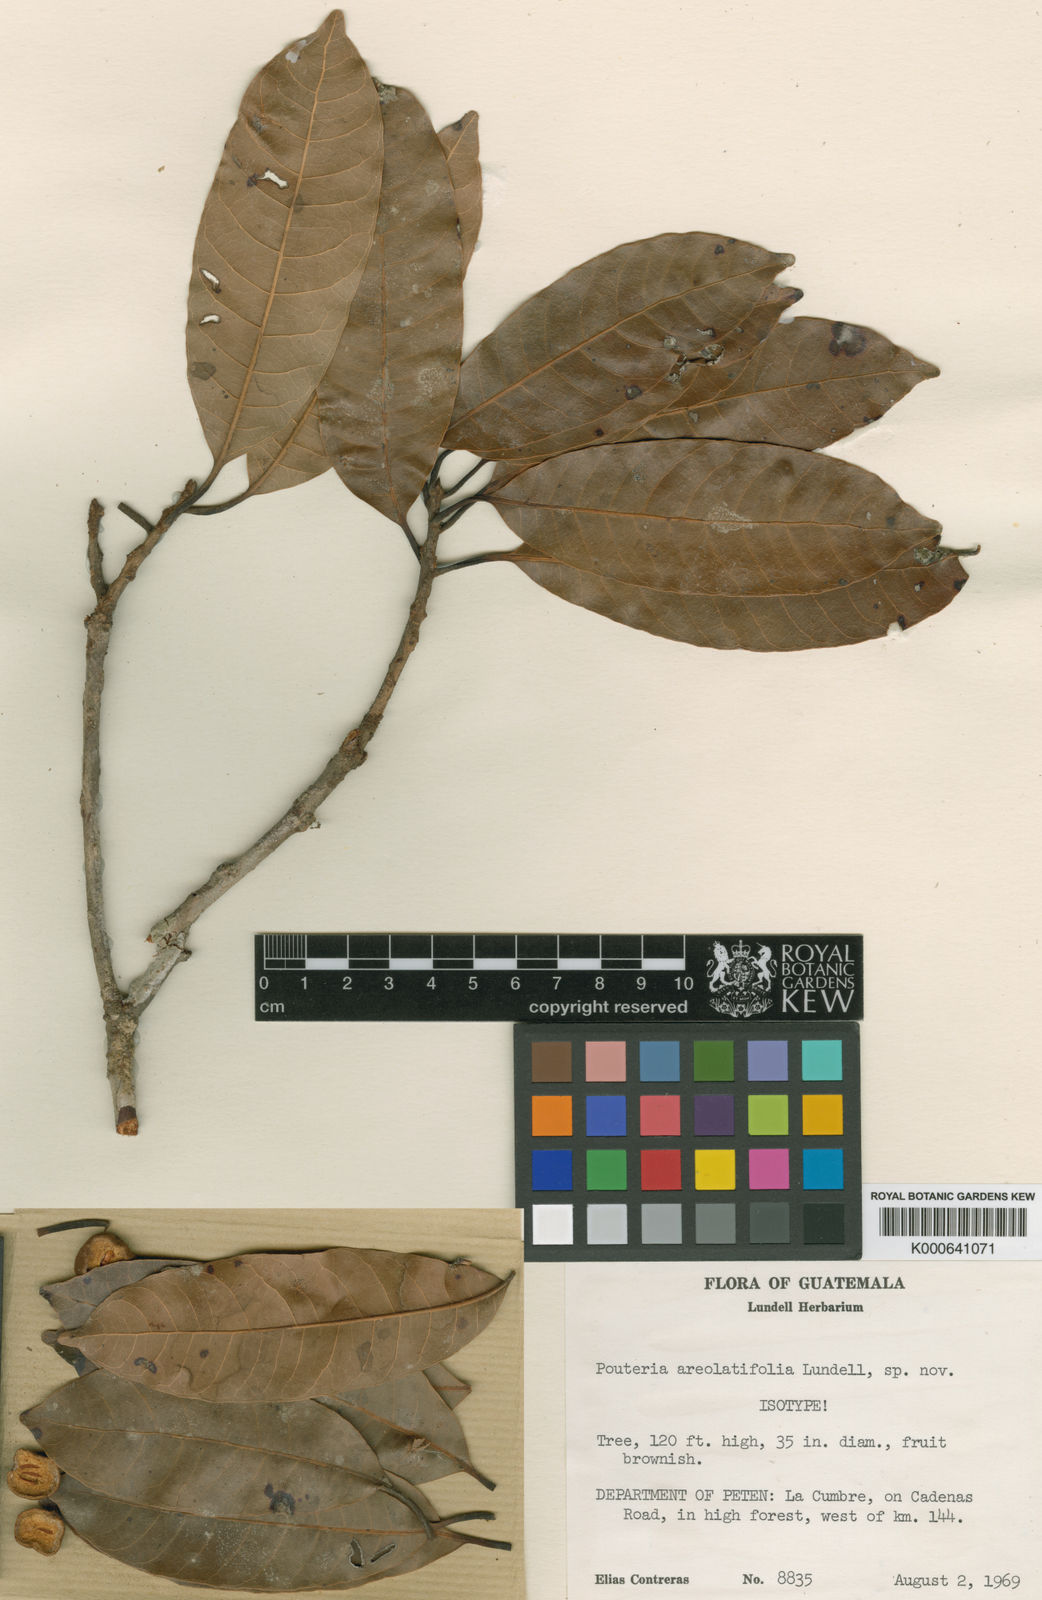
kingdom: Plantae
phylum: Tracheophyta
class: Magnoliopsida
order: Ericales
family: Sapotaceae
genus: Pouteria
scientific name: Pouteria areolatifolia
